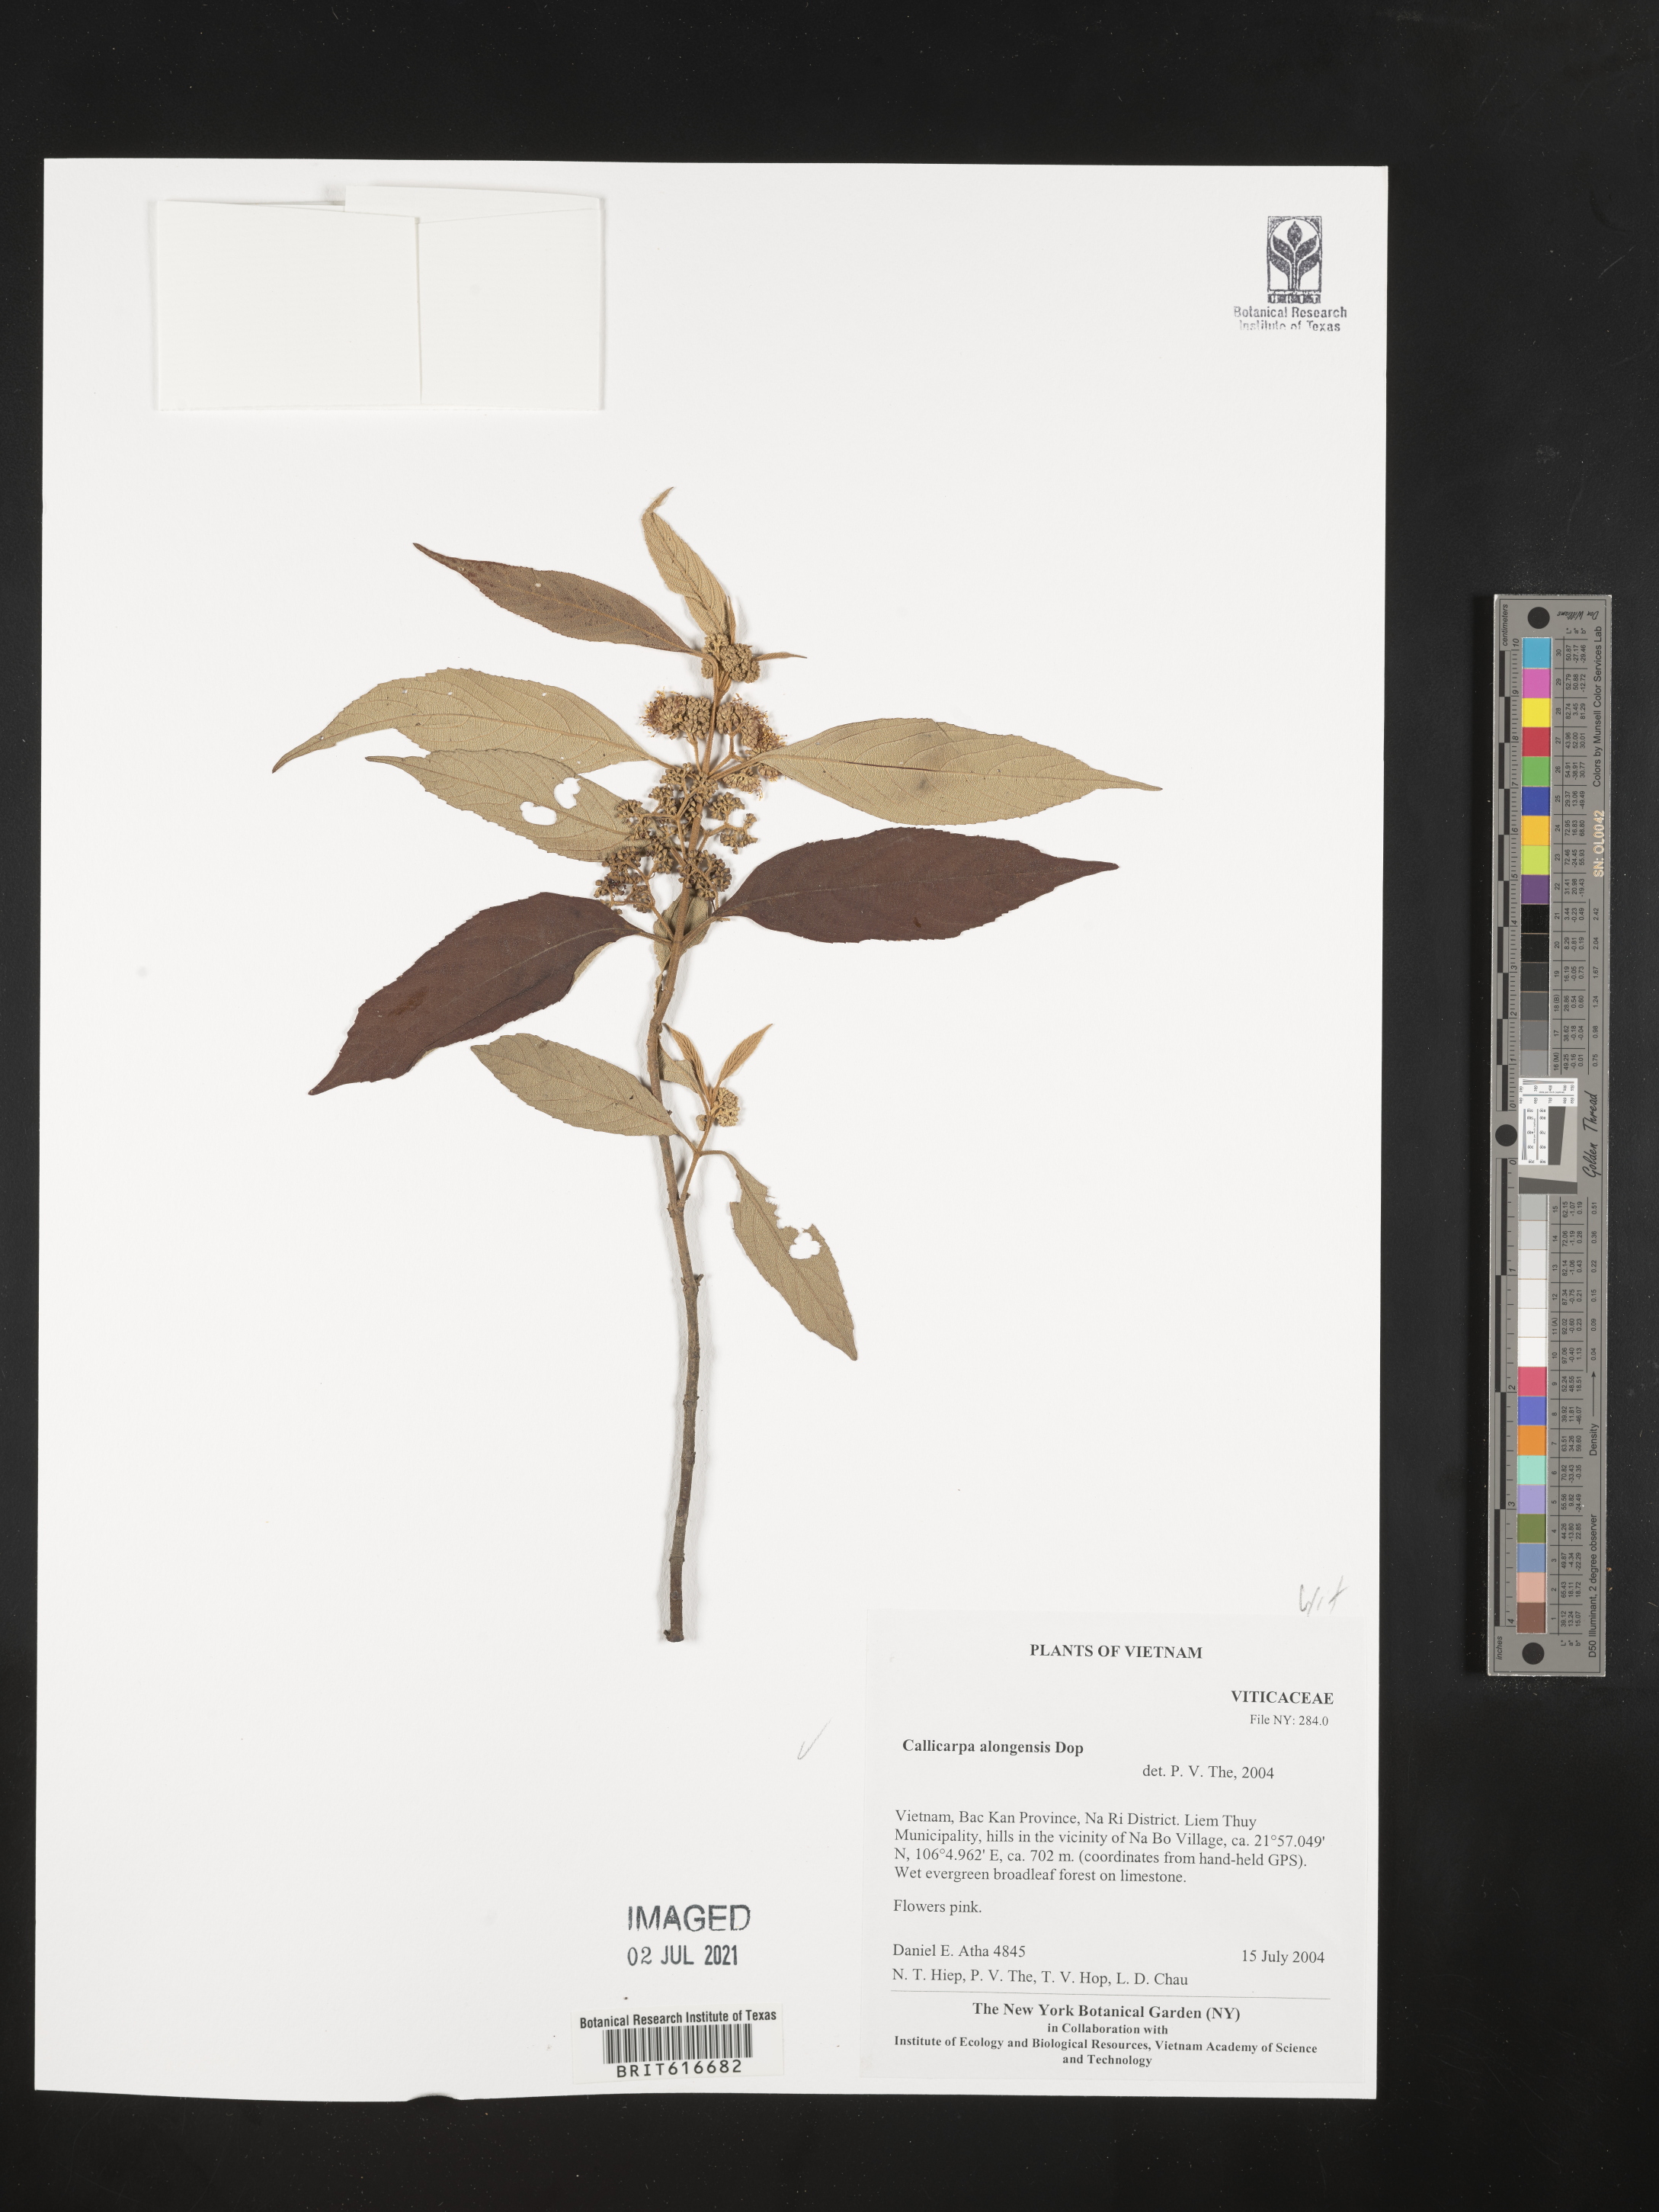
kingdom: Plantae
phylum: Tracheophyta
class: Magnoliopsida
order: Lamiales
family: Lamiaceae
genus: Callicarpa
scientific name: Callicarpa alongensis
